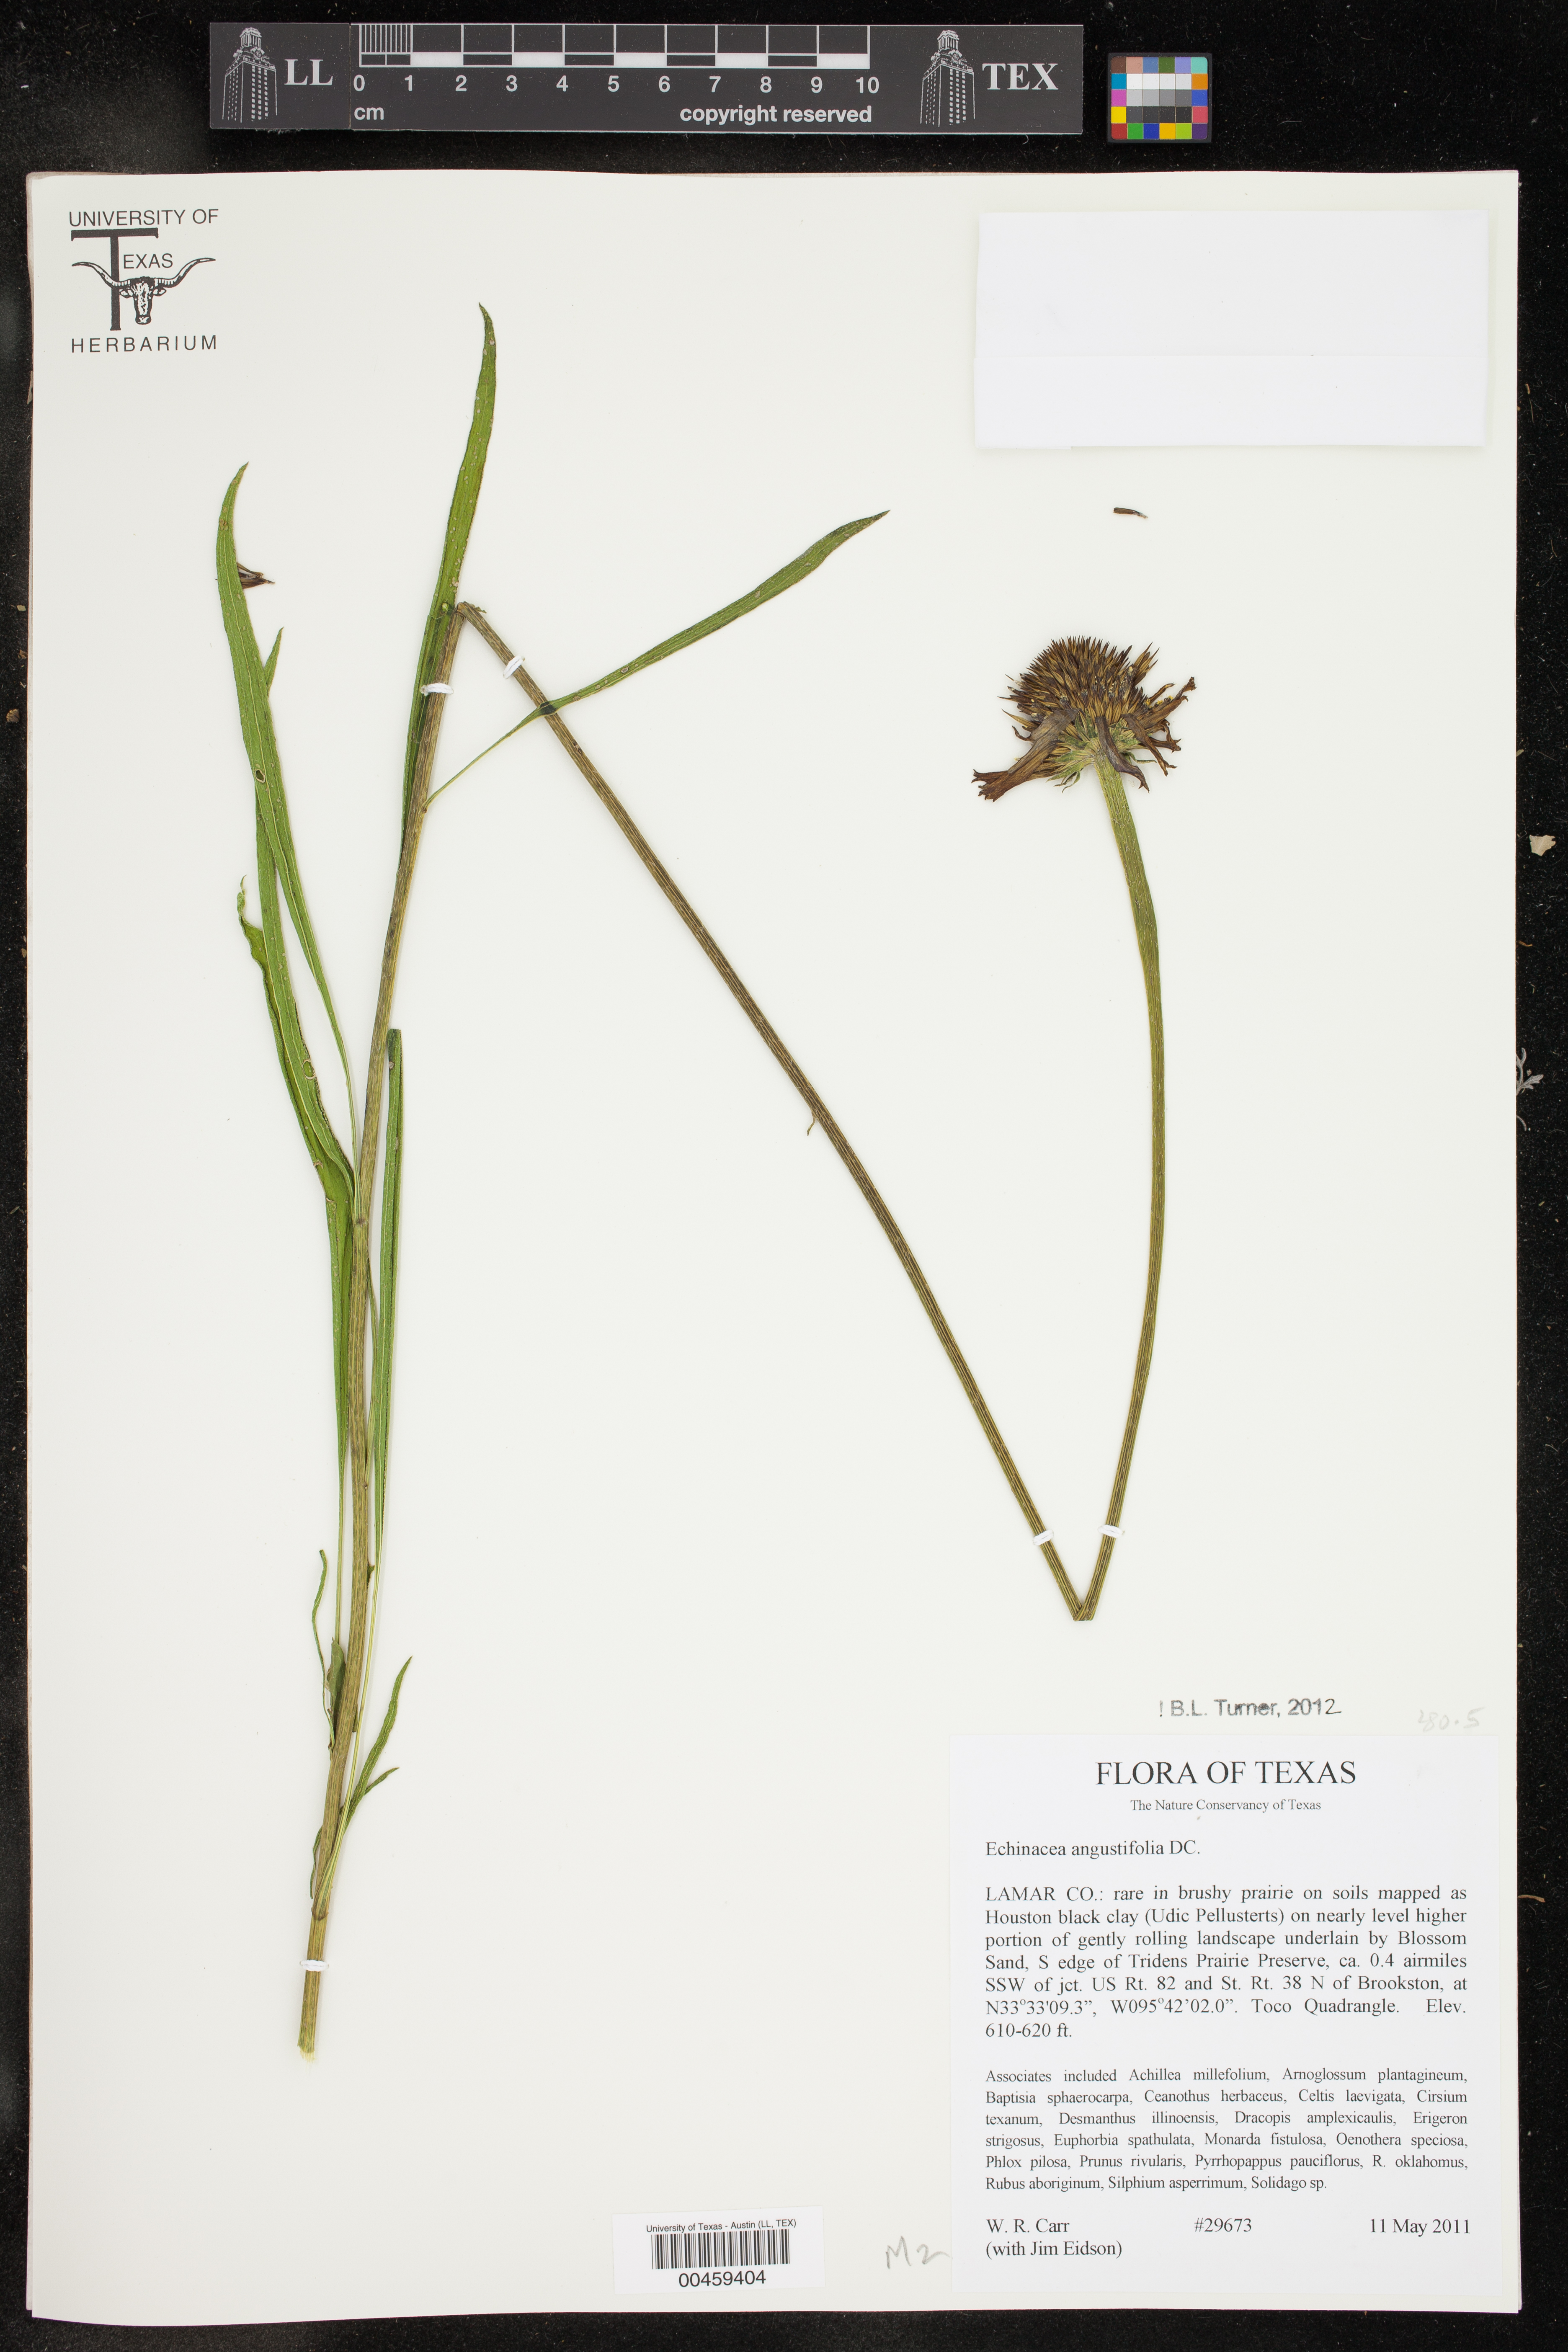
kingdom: Plantae
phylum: Tracheophyta
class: Magnoliopsida
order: Asterales
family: Asteraceae
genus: Echinacea
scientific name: Echinacea angustifolia
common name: Black-sampson echinacea
